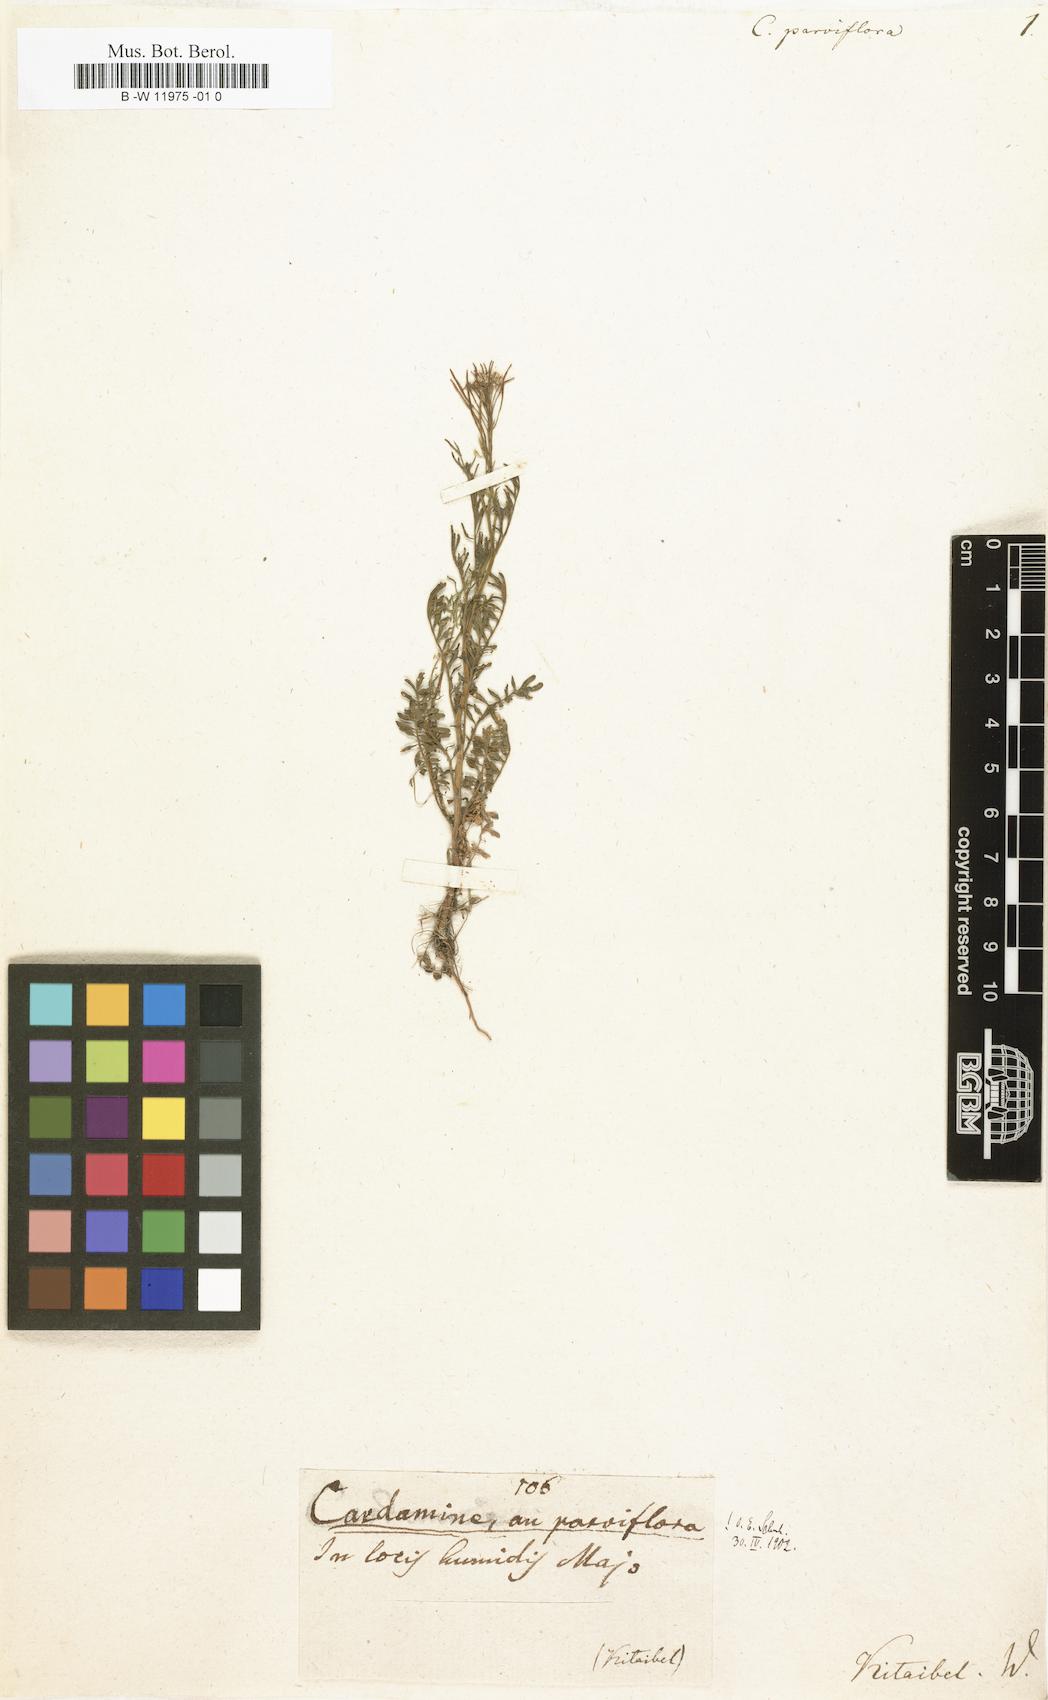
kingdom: Plantae
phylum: Tracheophyta
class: Magnoliopsida
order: Brassicales
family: Brassicaceae
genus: Cardamine
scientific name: Cardamine parviflora
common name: Sand bittercress
